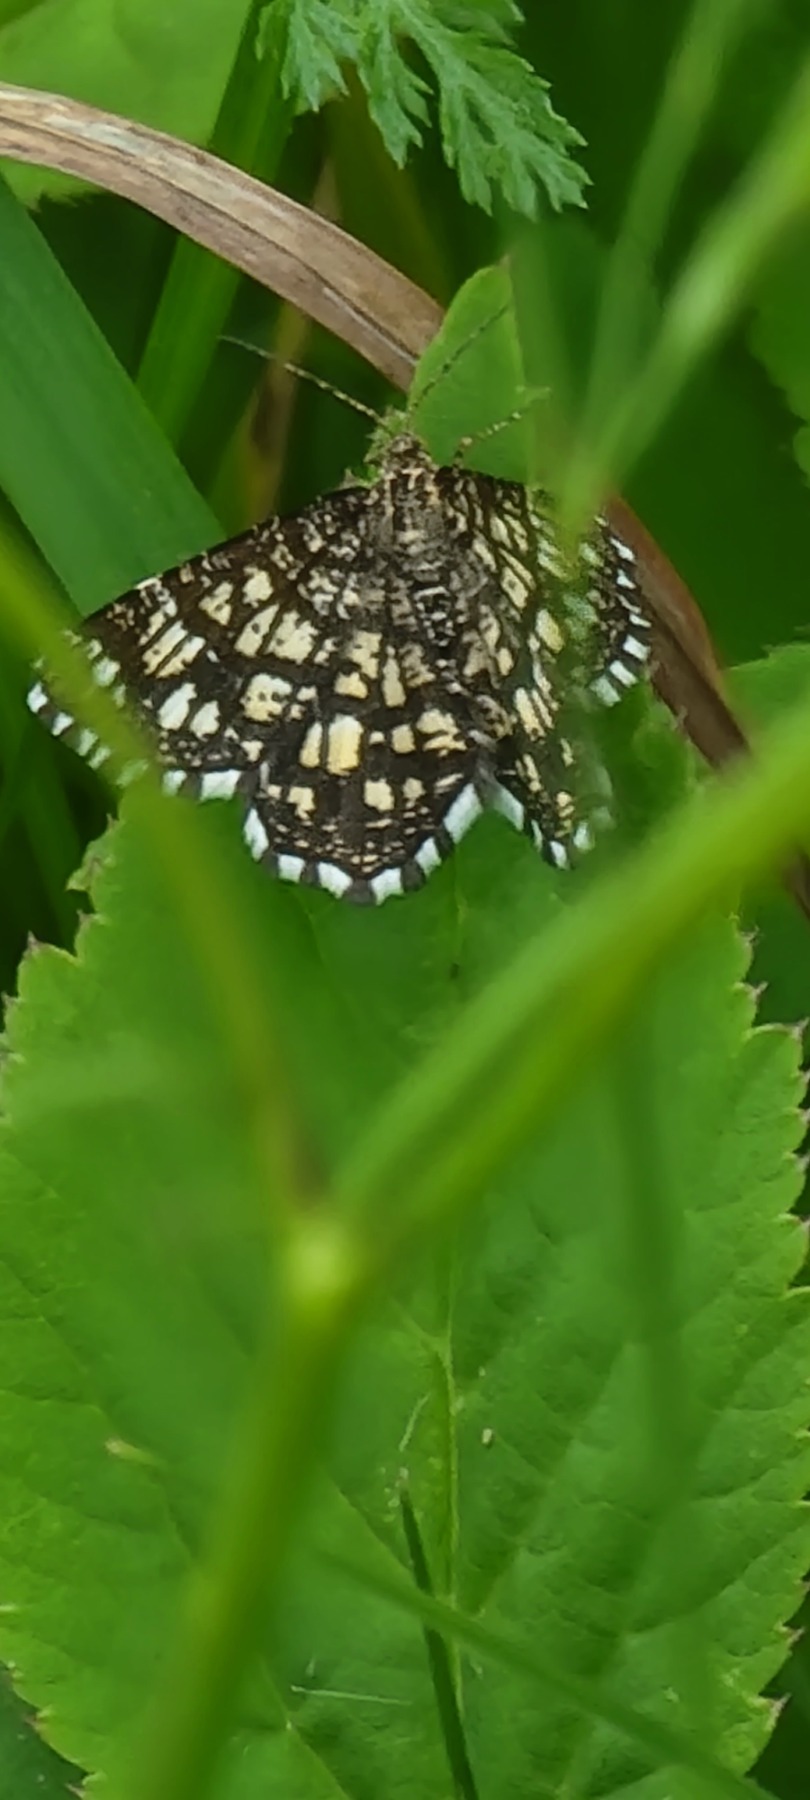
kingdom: Animalia
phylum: Arthropoda
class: Insecta
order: Lepidoptera
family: Geometridae
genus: Chiasmia
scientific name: Chiasmia clathrata
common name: Kløvermåler
